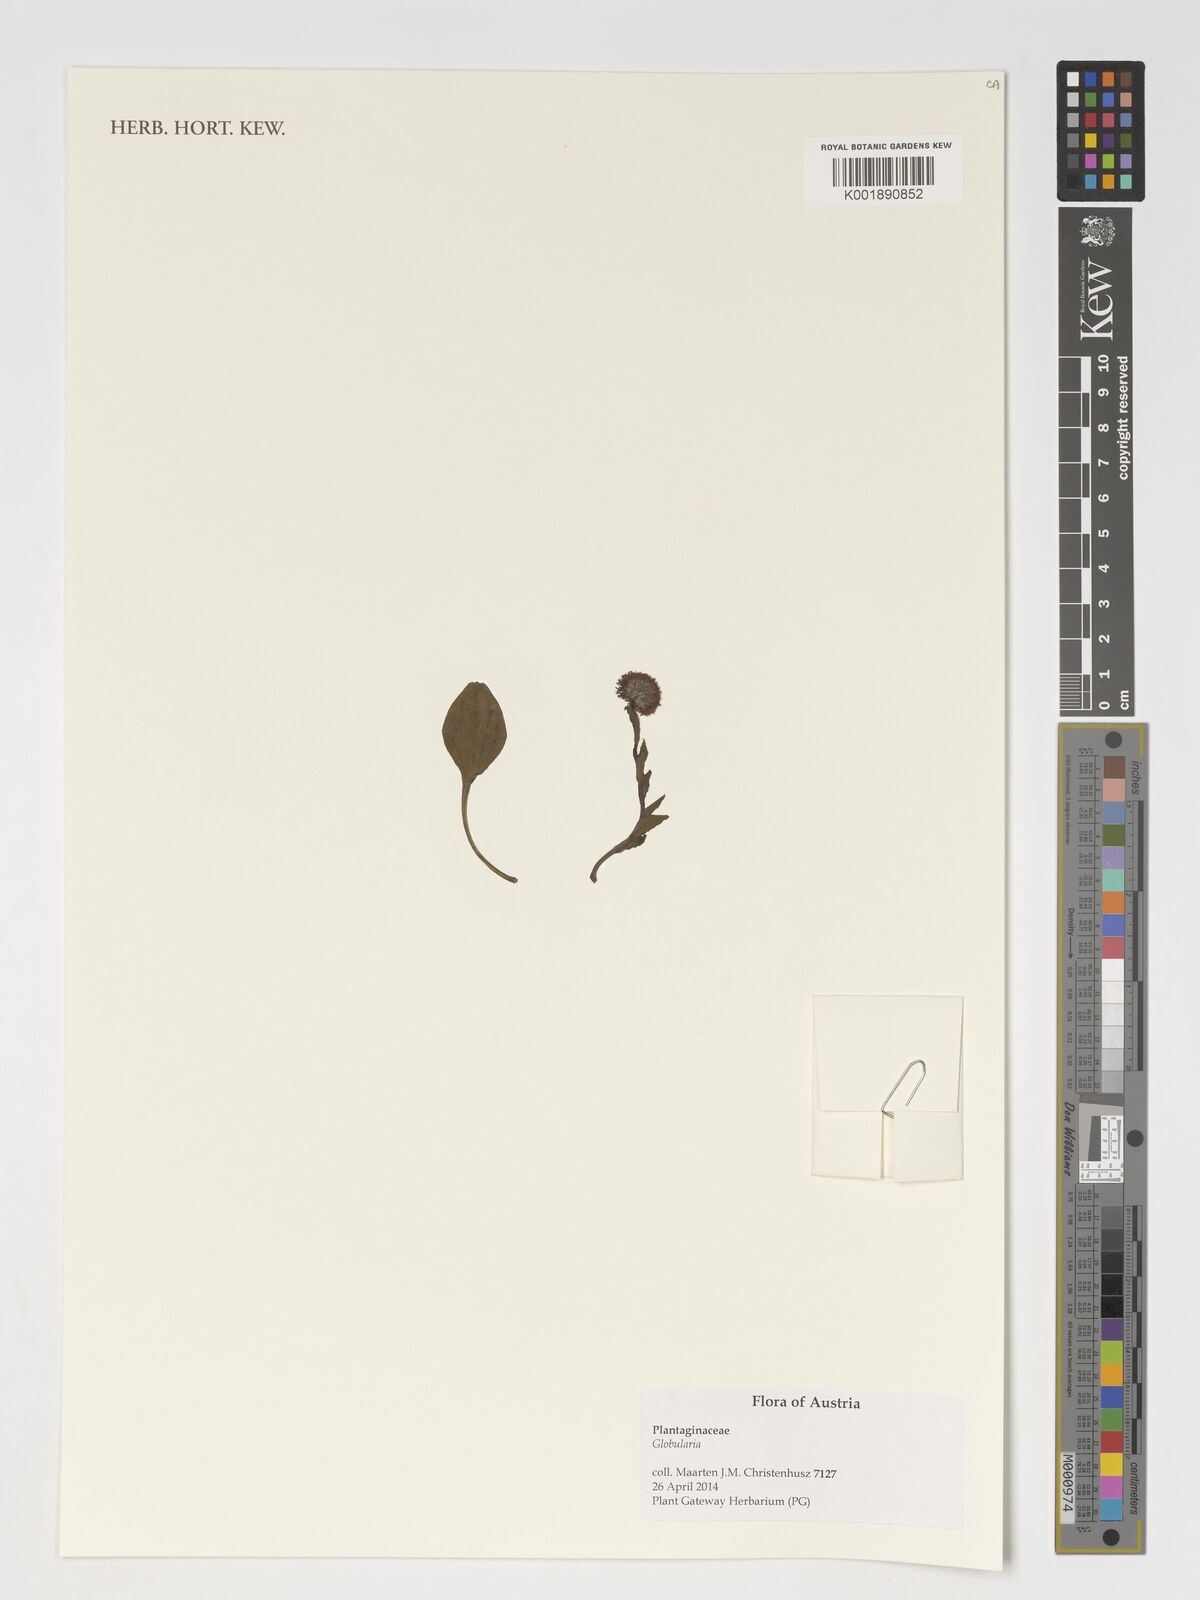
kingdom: Plantae
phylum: Tracheophyta
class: Magnoliopsida
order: Lamiales
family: Plantaginaceae
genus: Globularia
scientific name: Globularia
